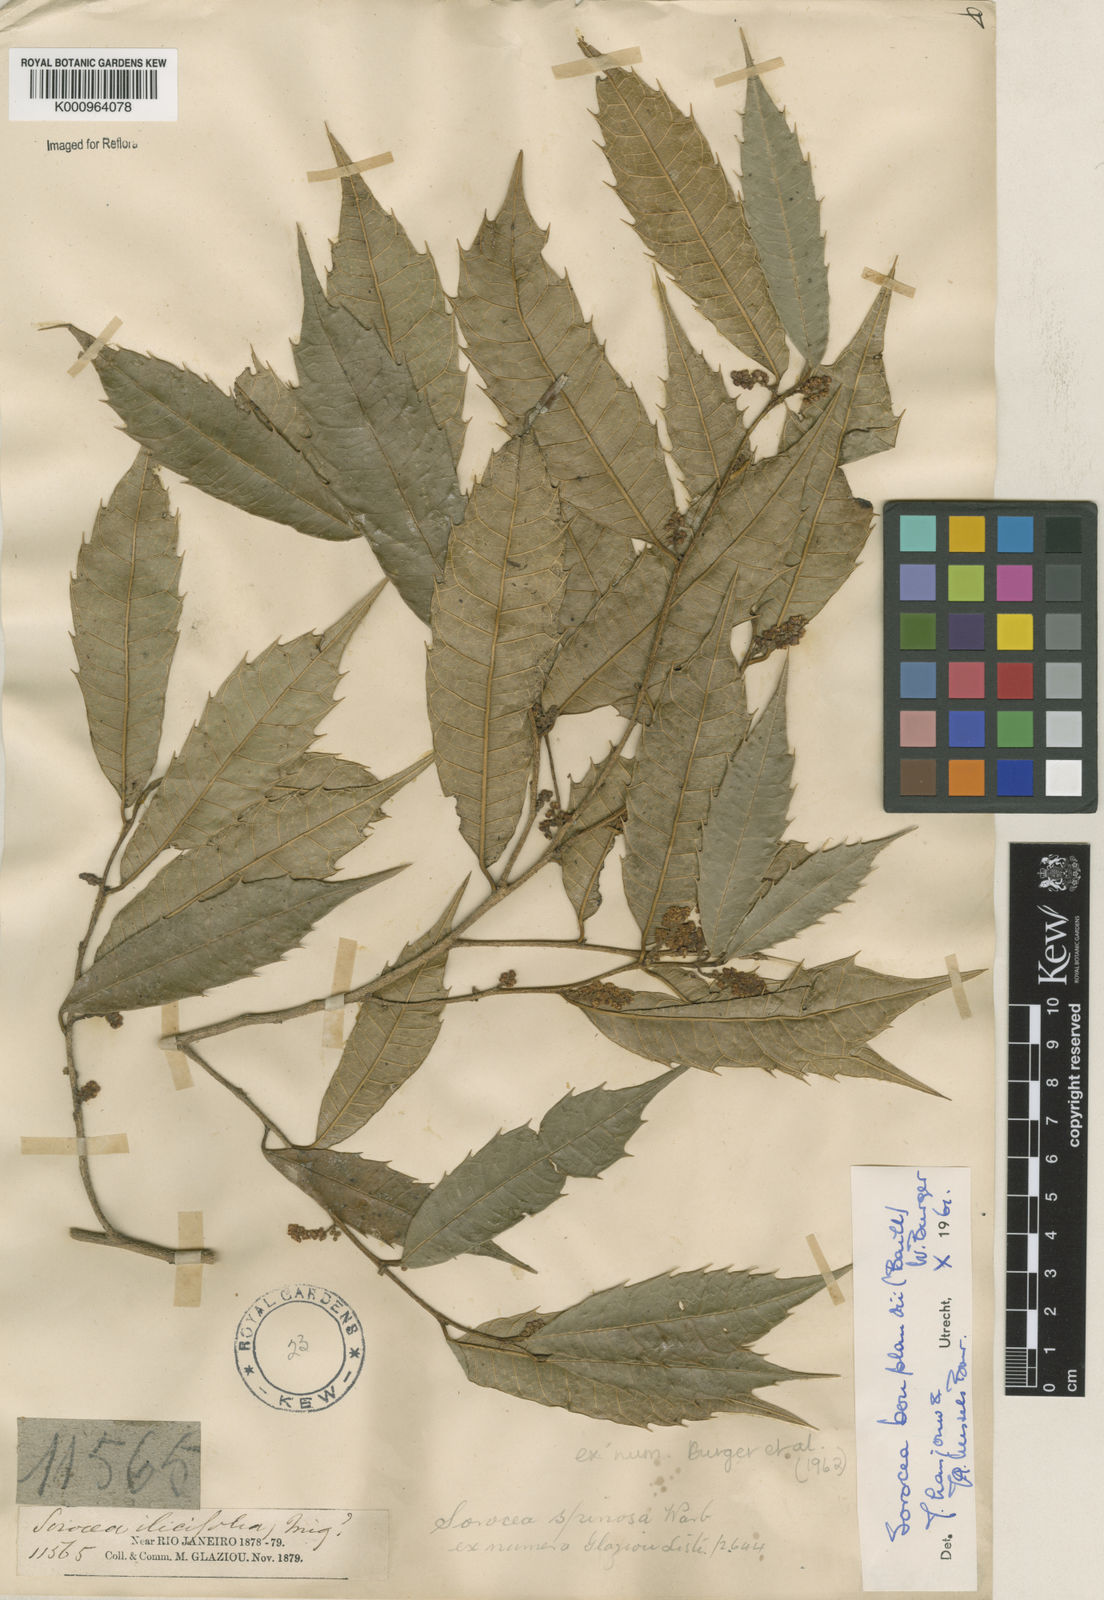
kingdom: Plantae
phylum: Tracheophyta
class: Magnoliopsida
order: Rosales
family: Moraceae
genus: Sorocea
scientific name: Sorocea
